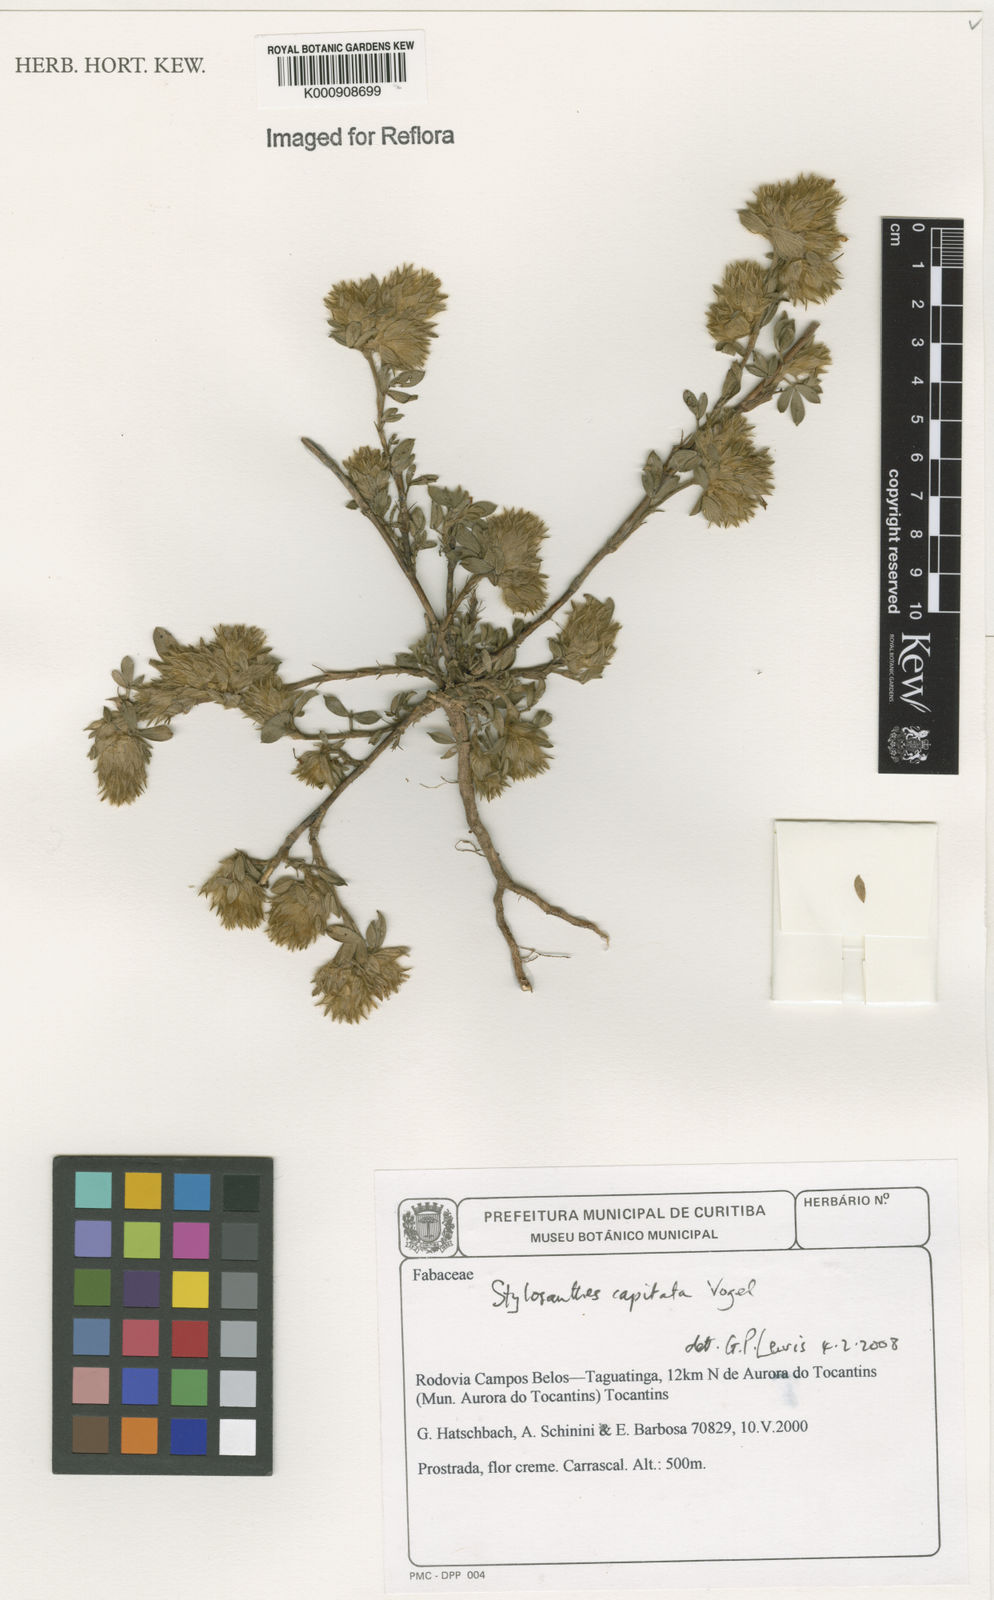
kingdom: Plantae
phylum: Tracheophyta
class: Magnoliopsida
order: Fabales
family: Fabaceae
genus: Stylosanthes
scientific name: Stylosanthes capitata
